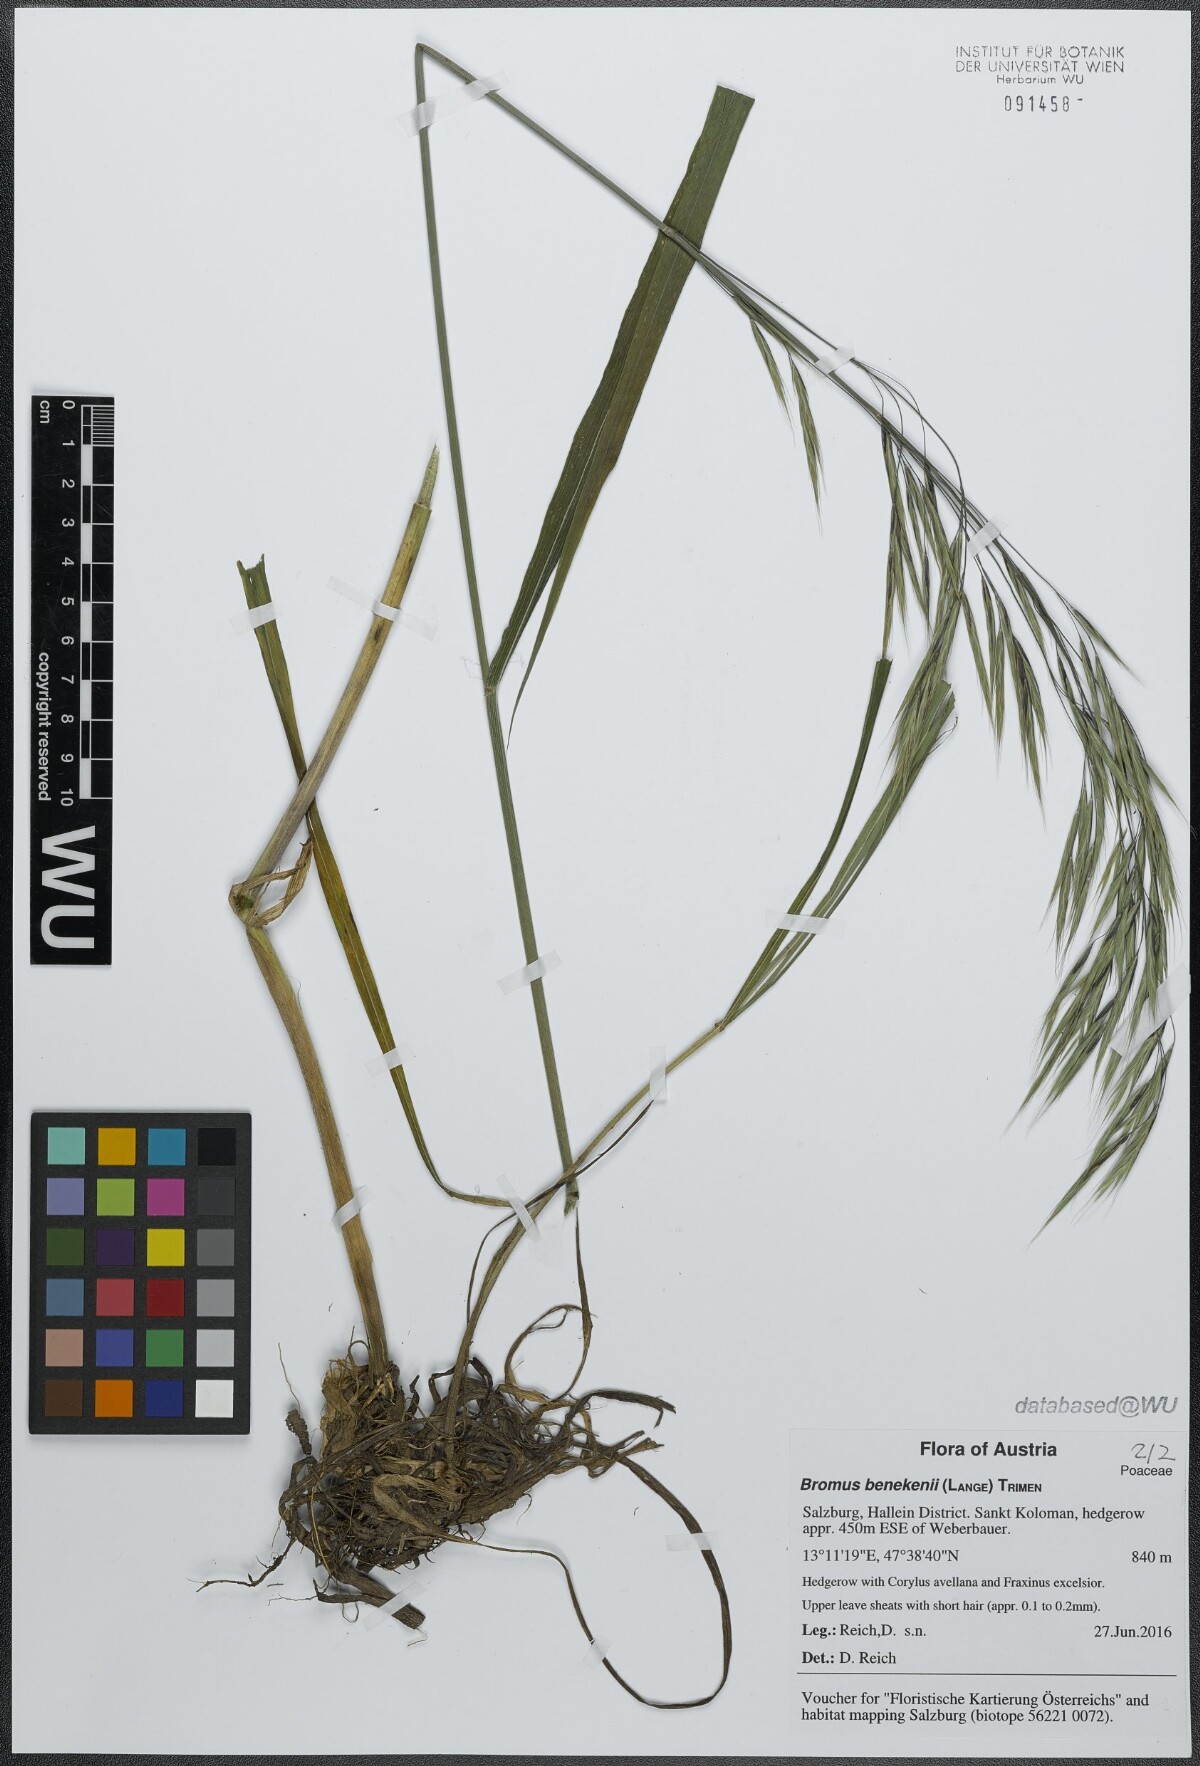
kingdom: Plantae
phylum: Tracheophyta
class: Liliopsida
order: Poales
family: Poaceae
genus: Bromus
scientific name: Bromus benekenii
